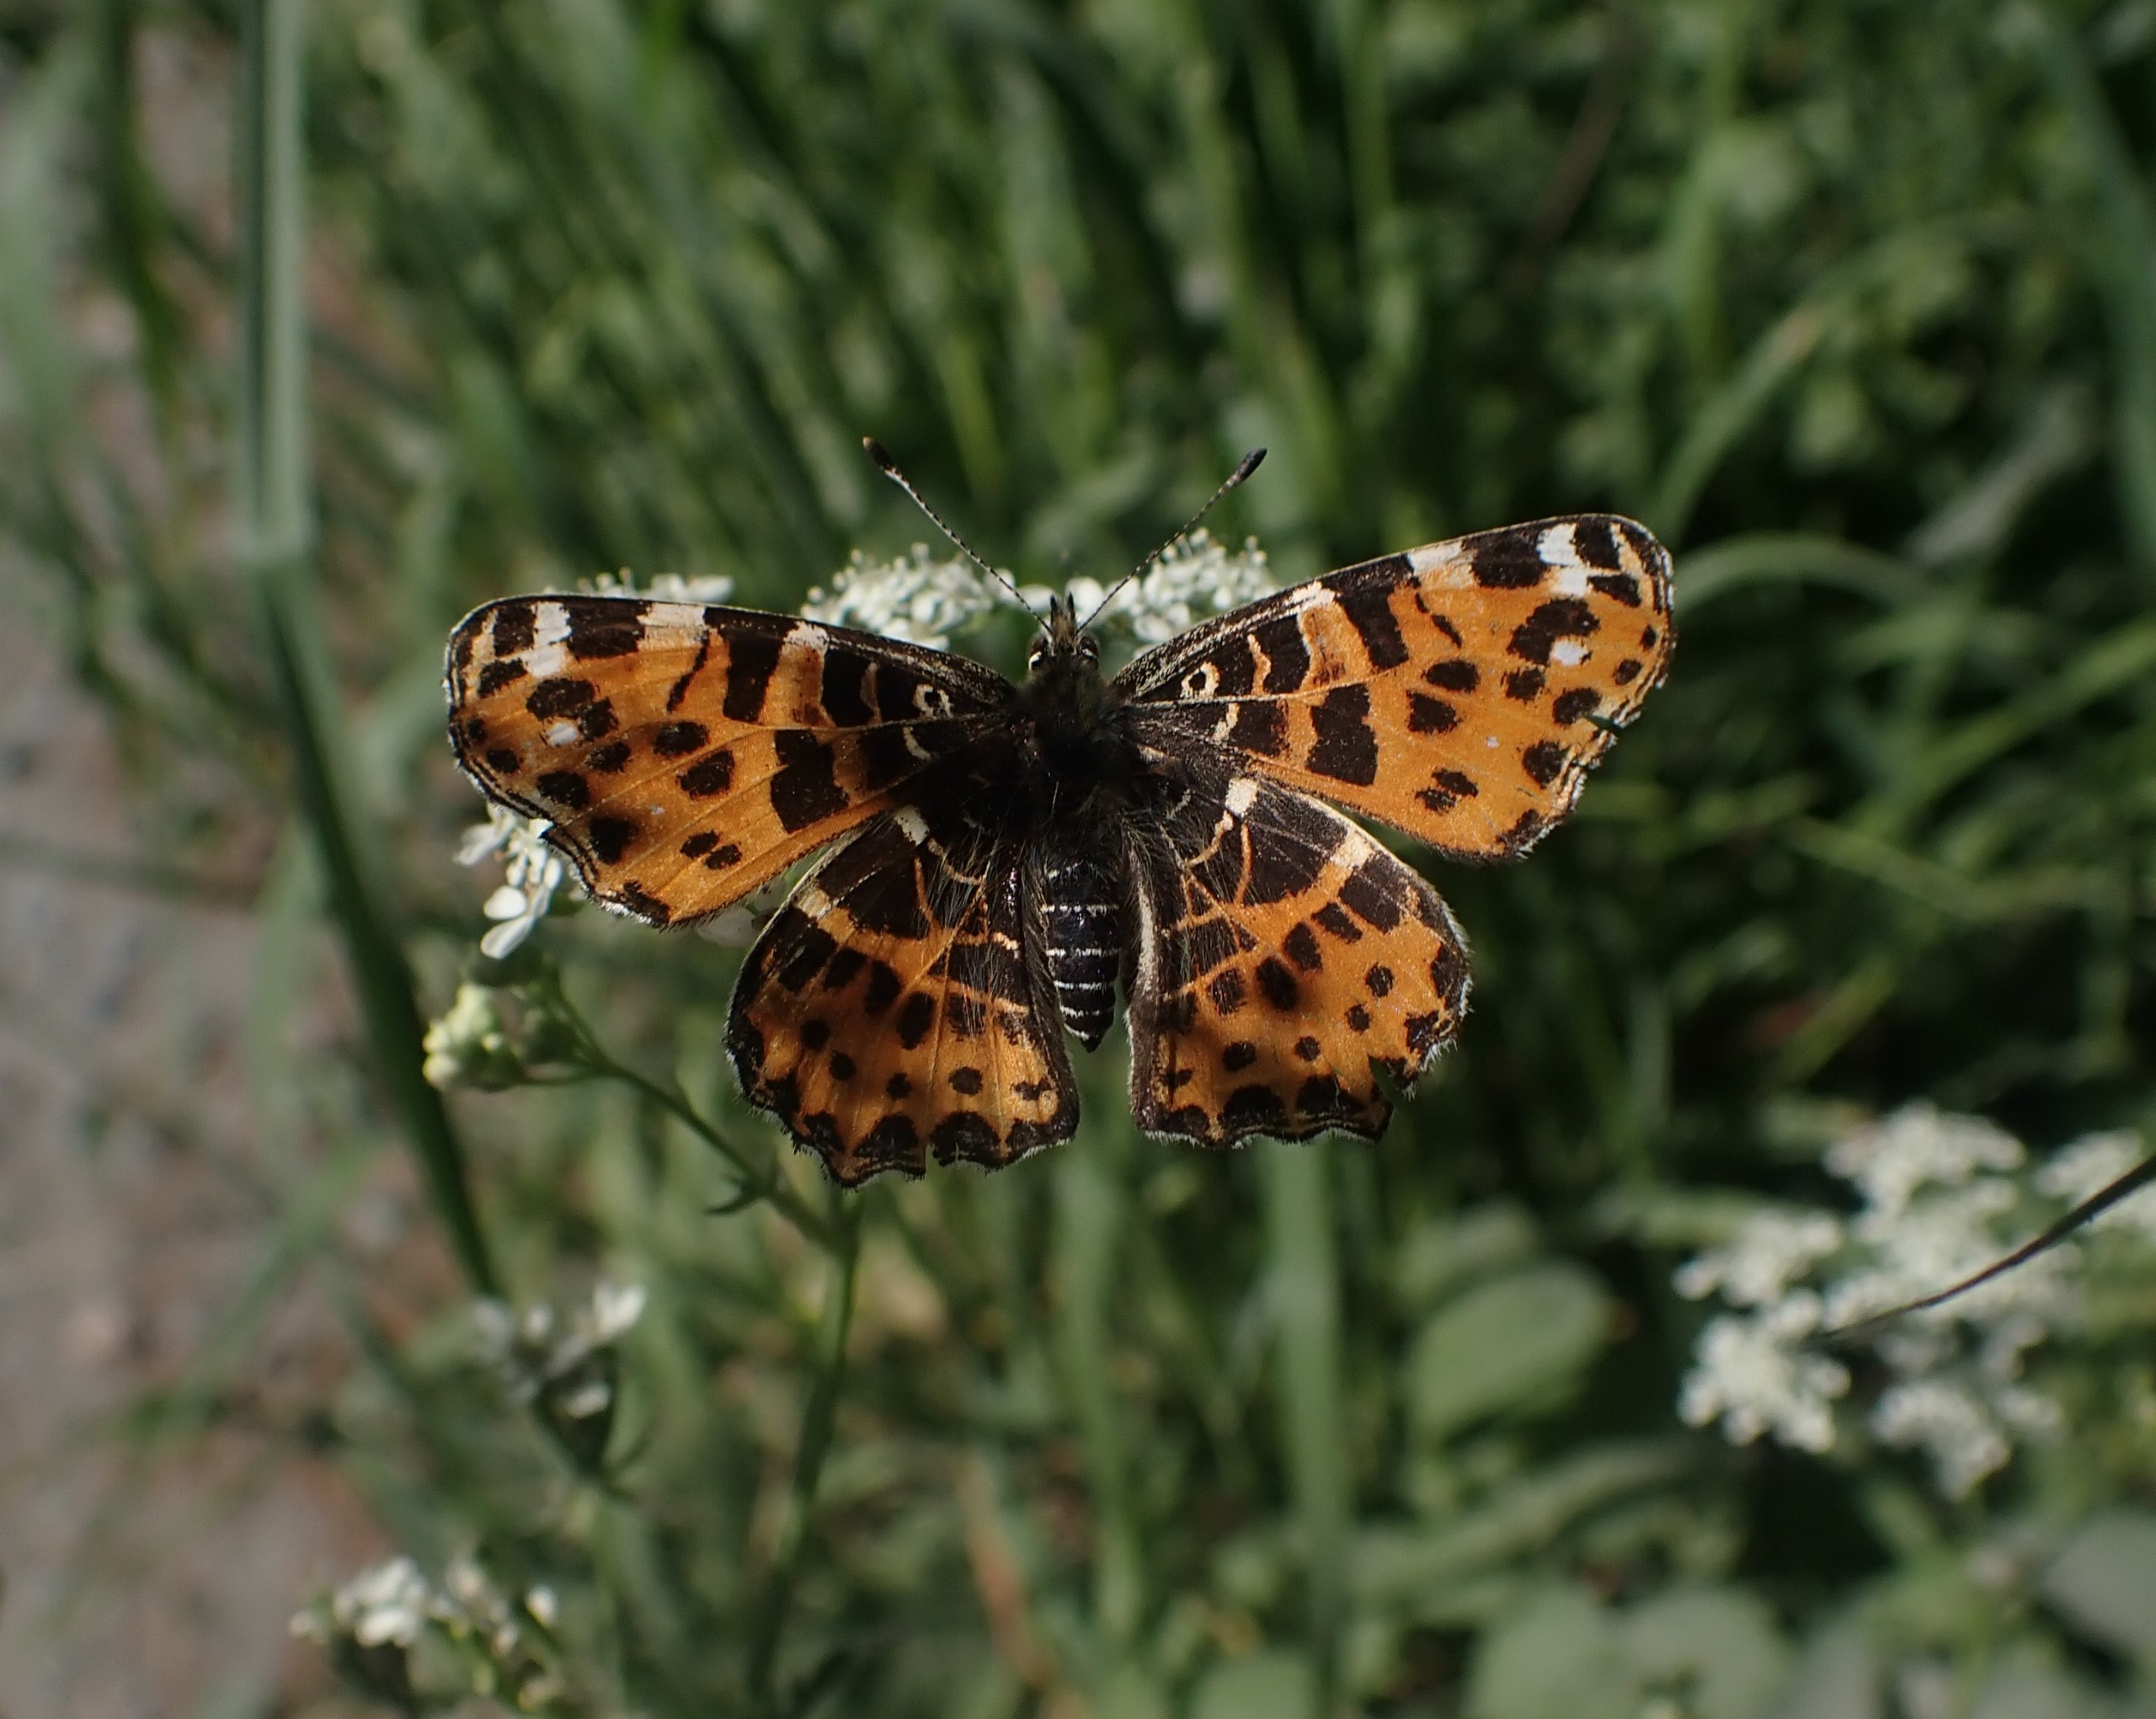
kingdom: Animalia
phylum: Arthropoda
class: Insecta
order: Lepidoptera
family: Nymphalidae
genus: Araschnia
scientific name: Araschnia levana
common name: Nældesommerfugl
